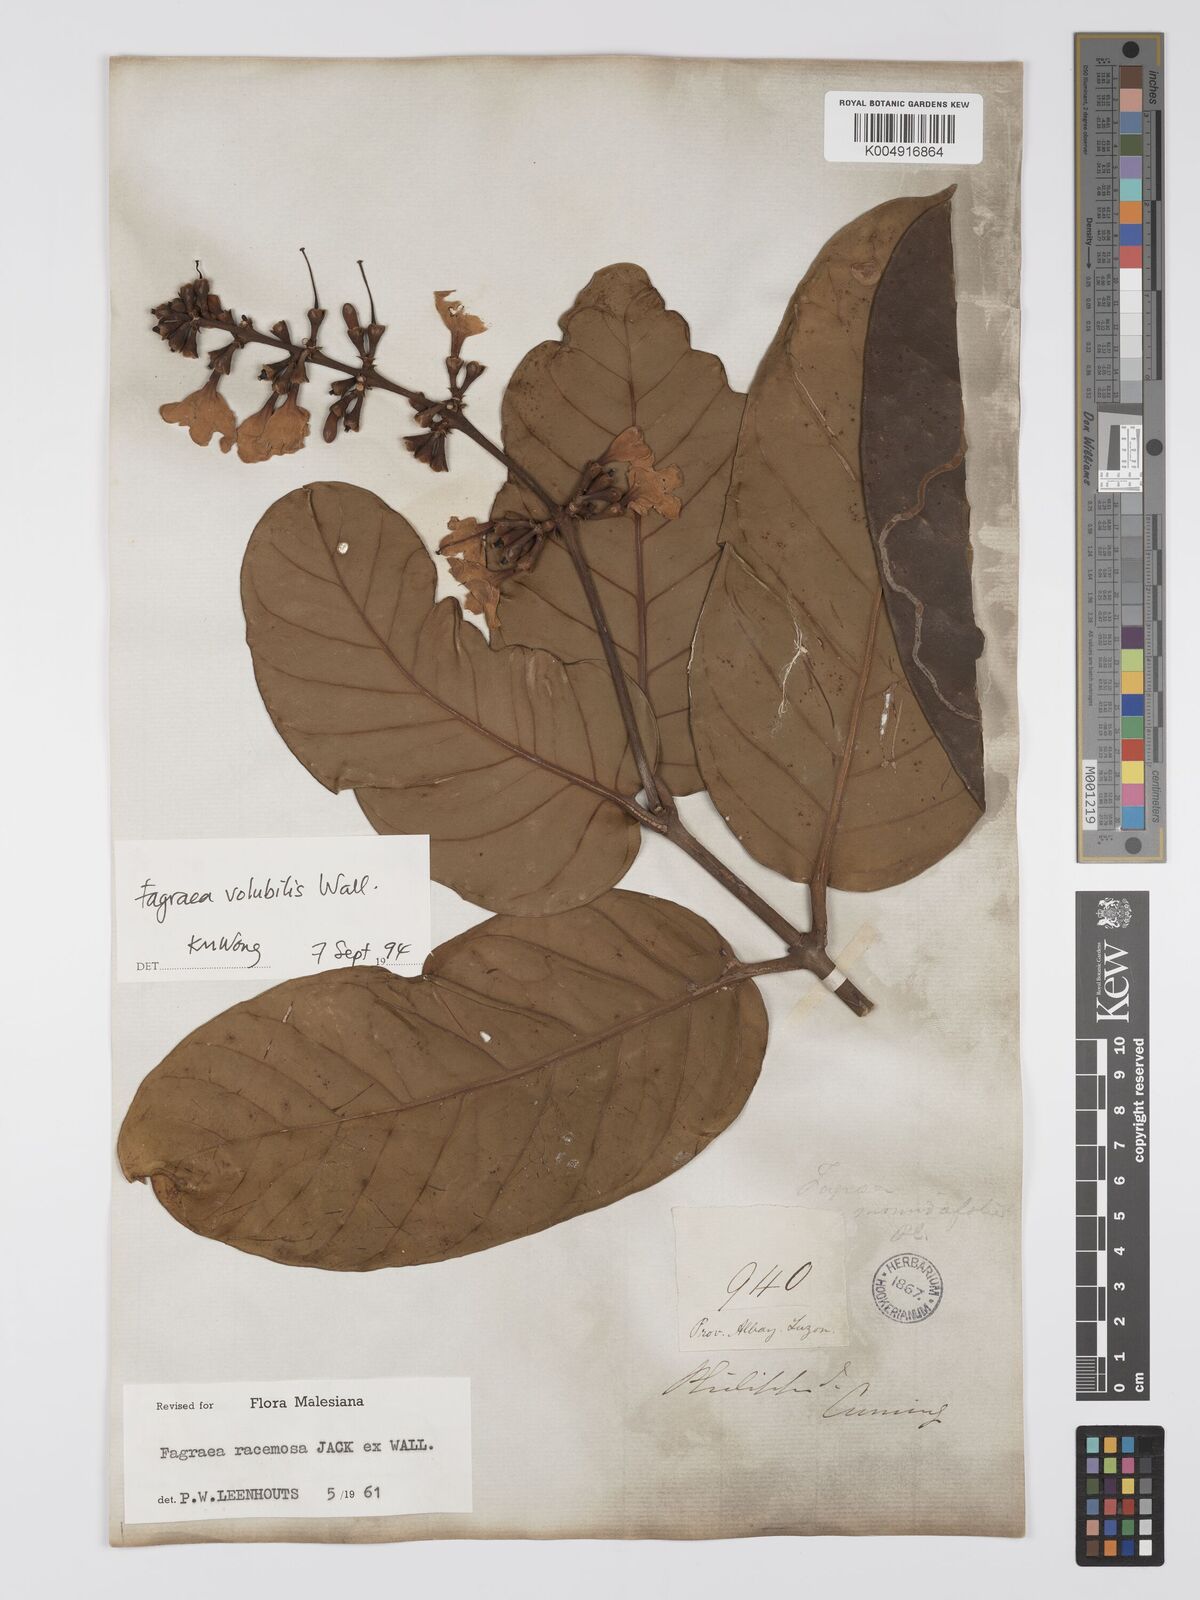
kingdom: Plantae
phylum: Tracheophyta
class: Magnoliopsida
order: Gentianales
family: Gentianaceae
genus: Utania
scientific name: Utania racemosa
